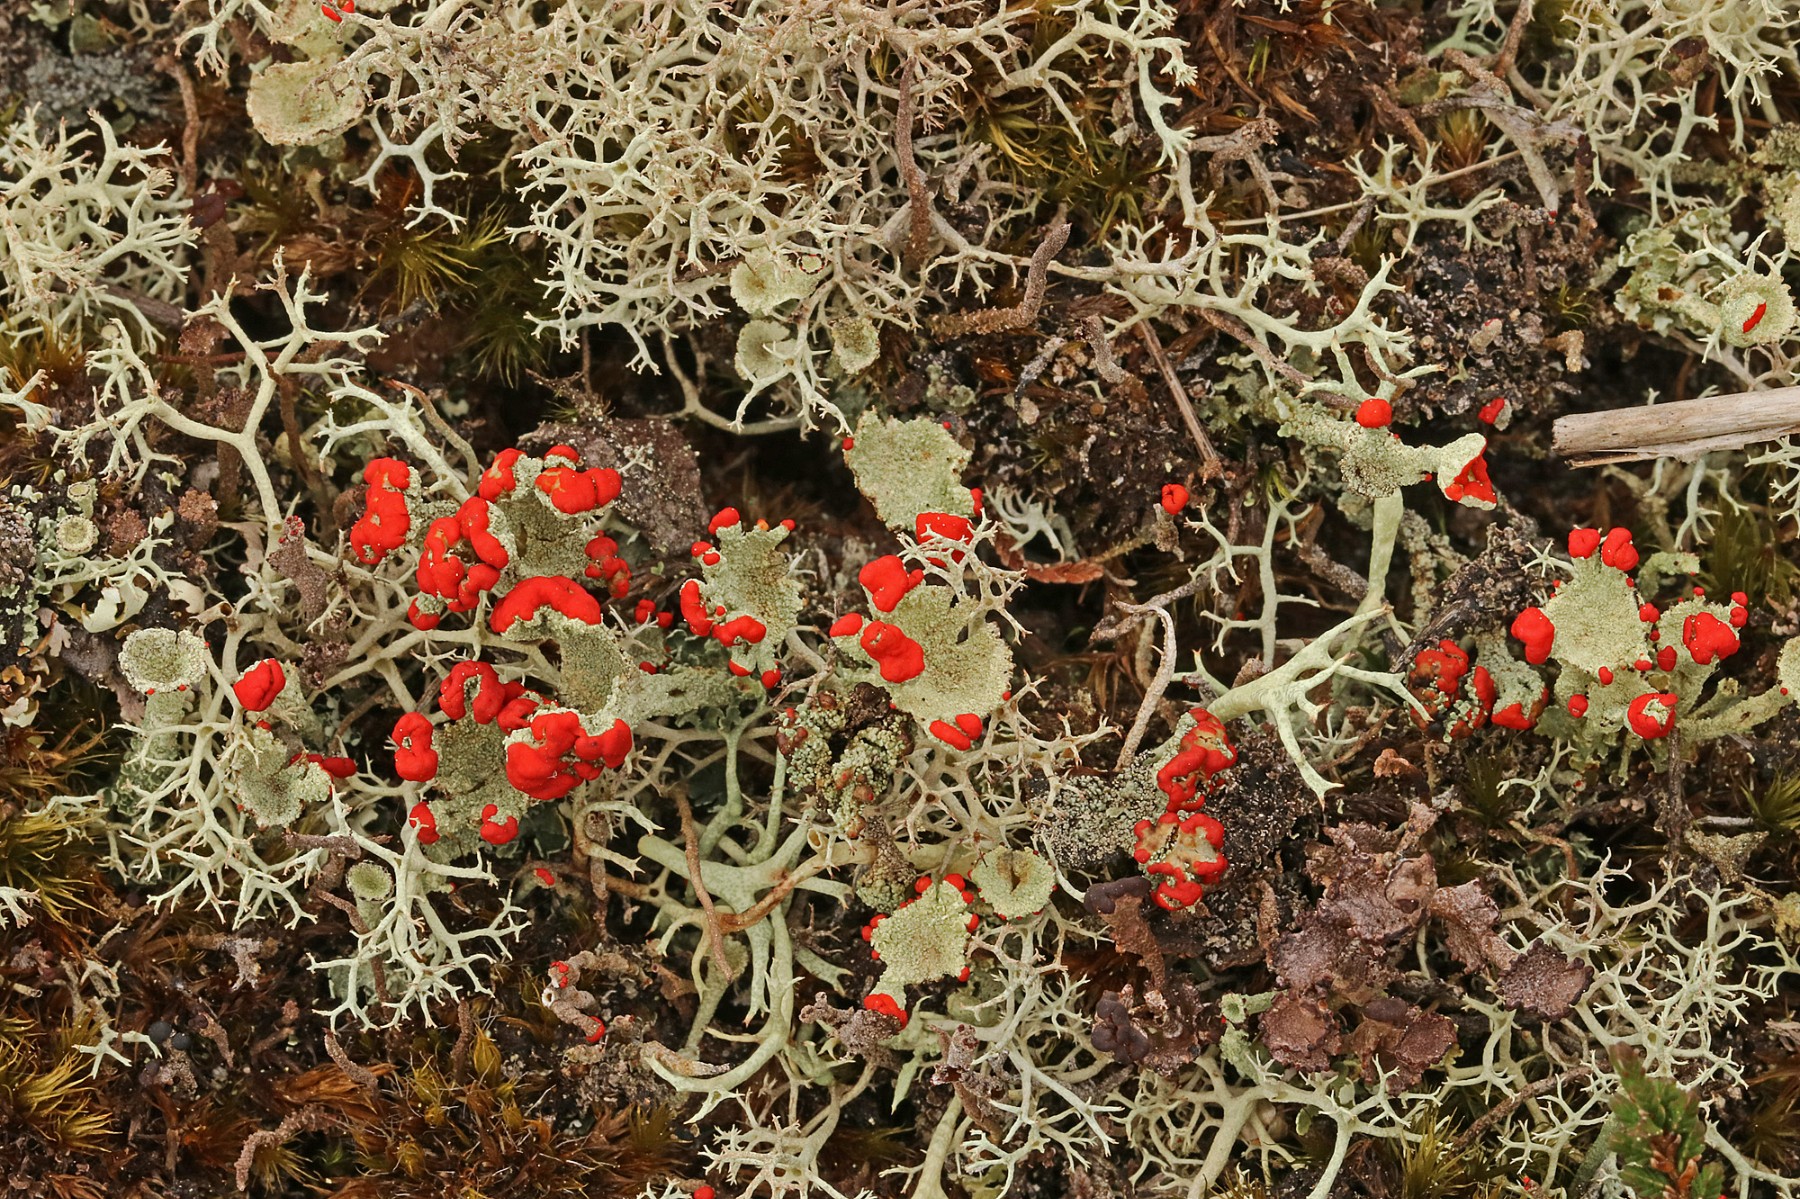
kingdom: Fungi
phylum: Ascomycota
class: Lecanoromycetes
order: Lecanorales
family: Cladoniaceae
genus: Cladonia
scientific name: Cladonia diversa
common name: rød bægerlav
